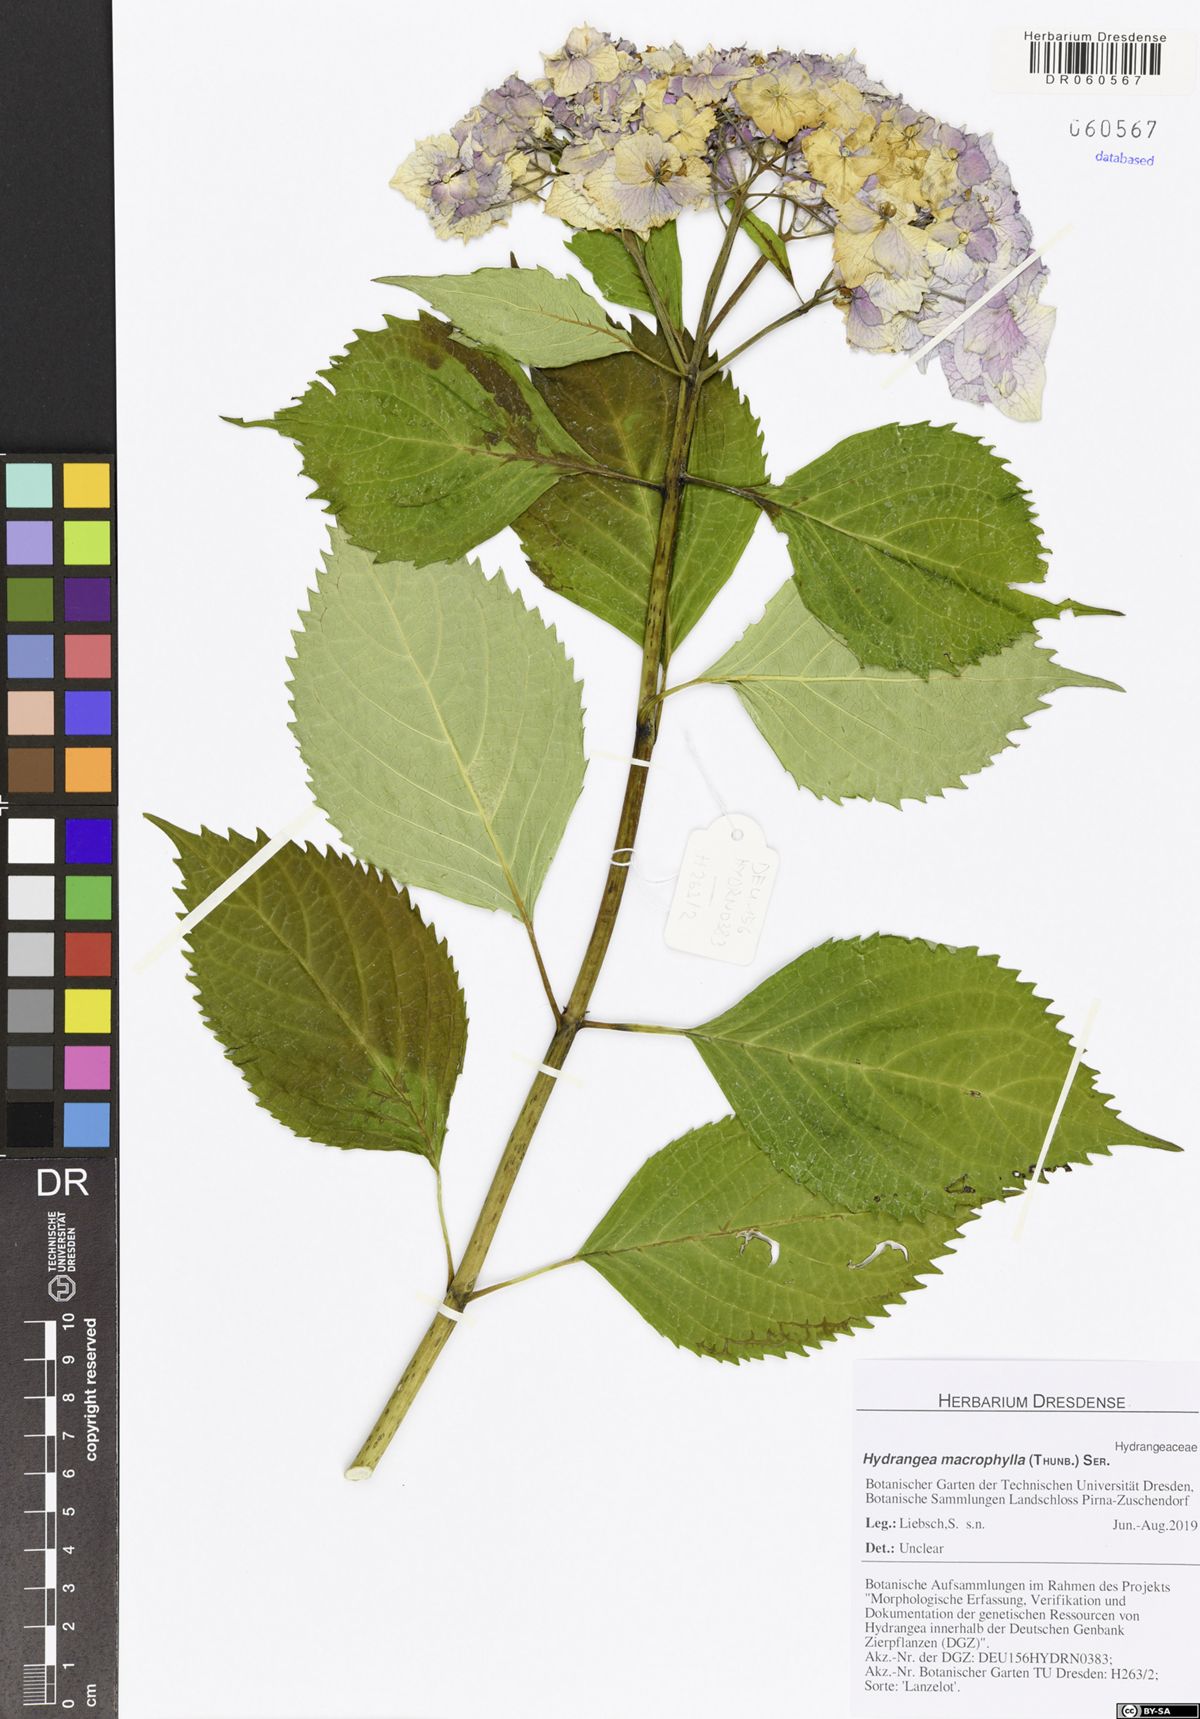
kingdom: Plantae
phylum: Tracheophyta
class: Magnoliopsida
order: Cornales
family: Hydrangeaceae
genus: Hydrangea
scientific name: Hydrangea macrophylla
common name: Hydrangea
